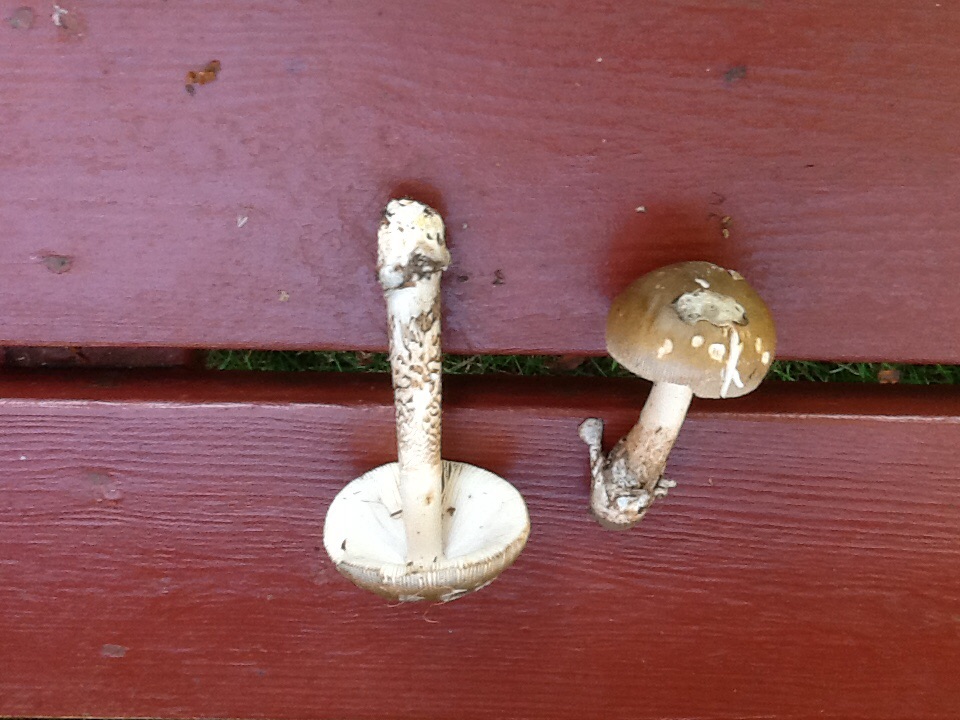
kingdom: Fungi
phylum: Basidiomycota
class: Agaricomycetes
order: Agaricales
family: Amanitaceae
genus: Amanita
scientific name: Amanita submembranacea
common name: gråspættet kam-fluesvamp
